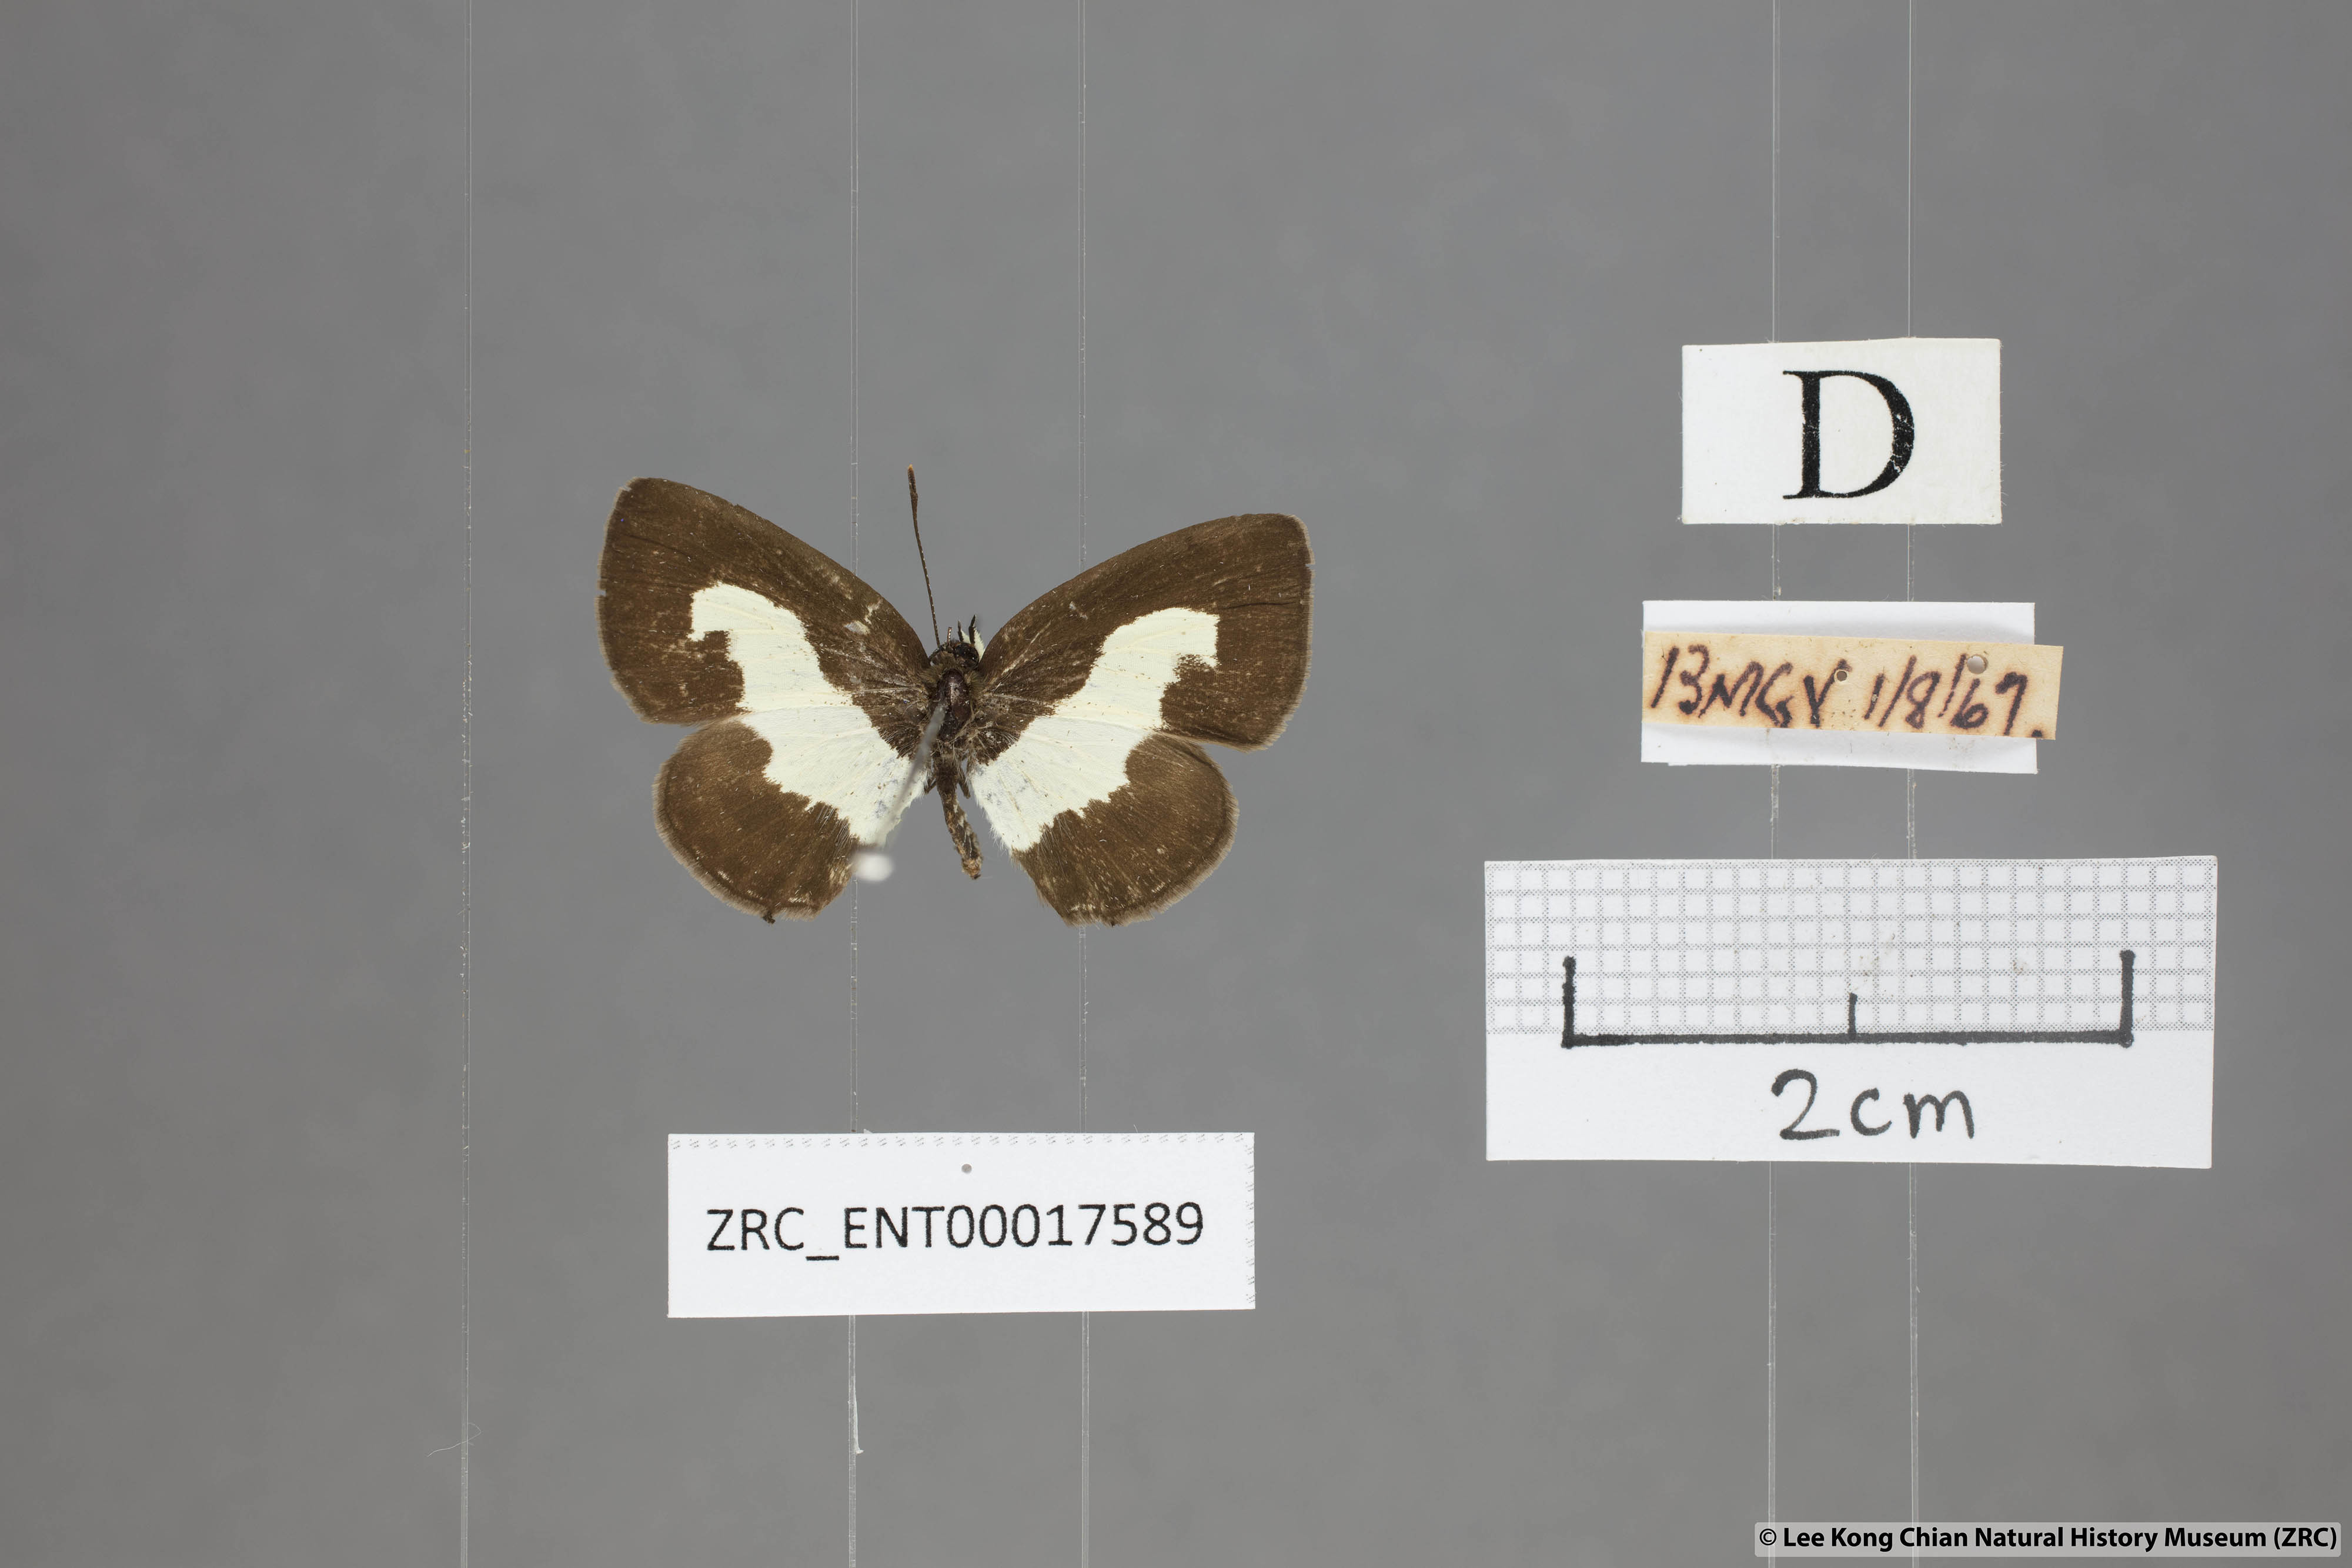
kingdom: Animalia
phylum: Arthropoda
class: Insecta
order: Lepidoptera
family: Lycaenidae
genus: Caleta
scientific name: Caleta roxus
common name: Straight pierrot
